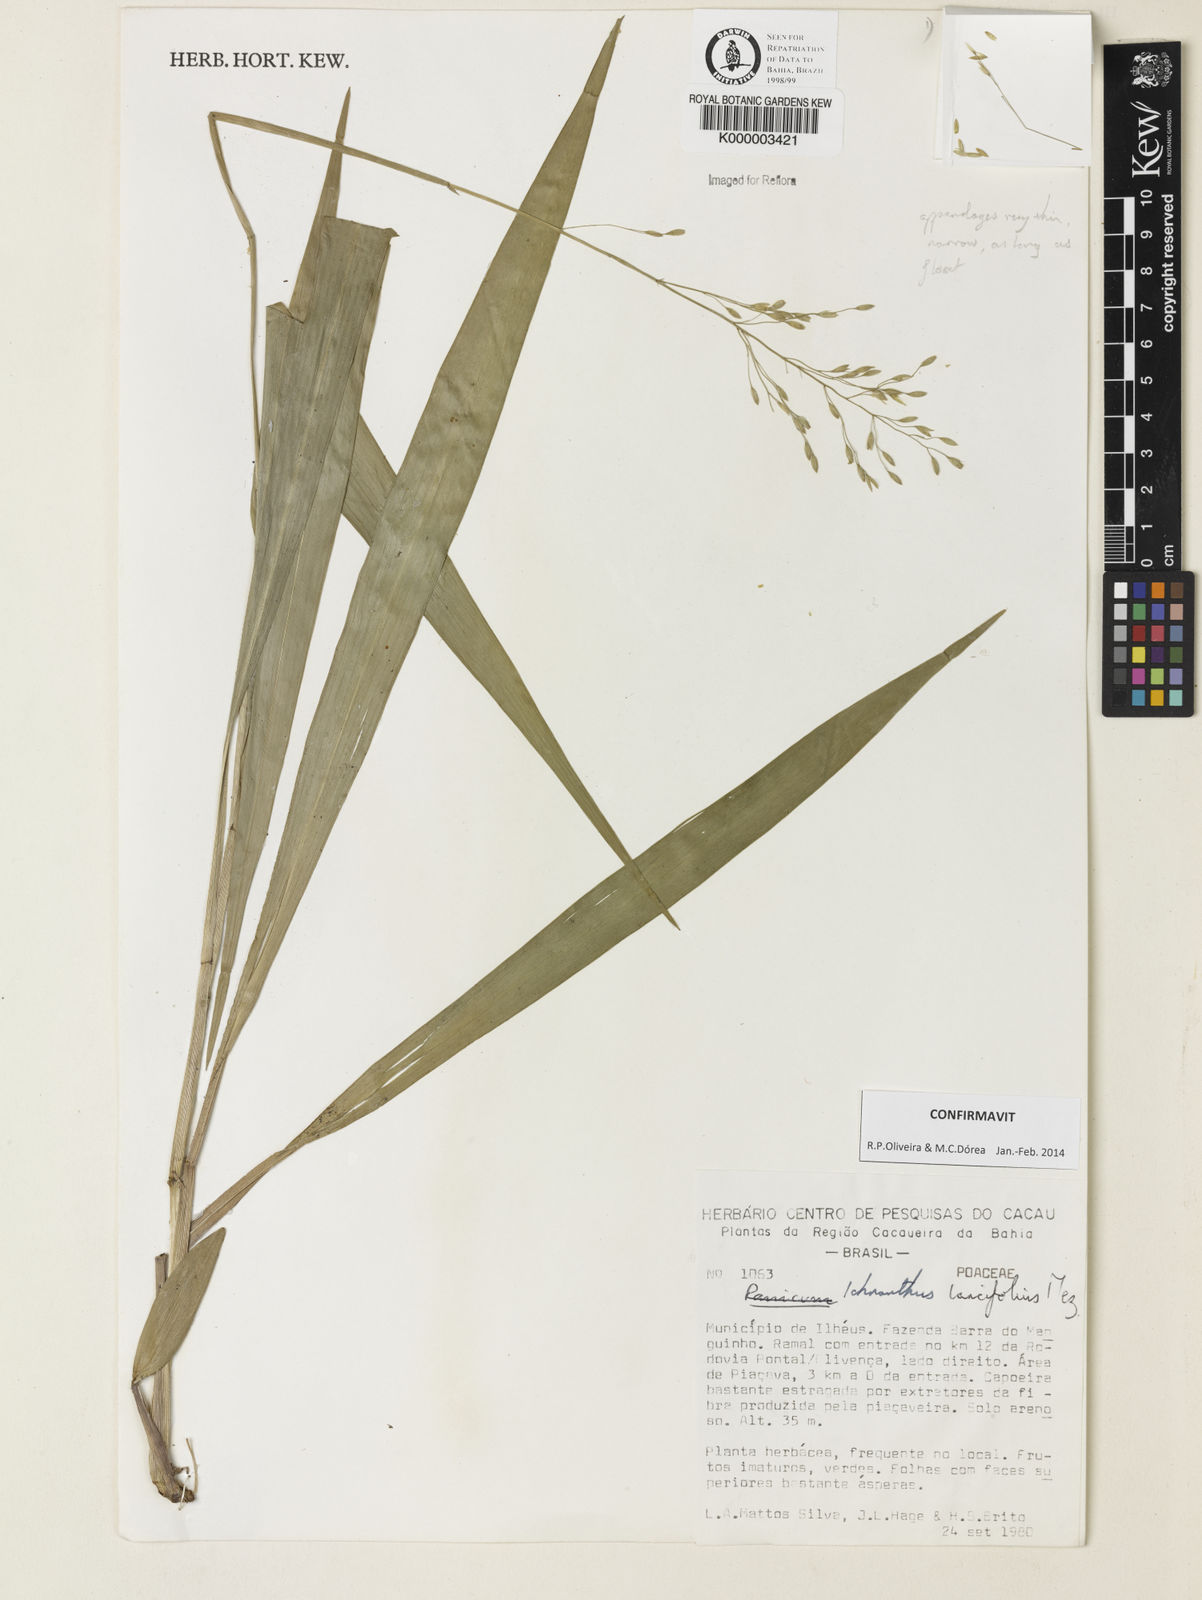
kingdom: Plantae
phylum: Tracheophyta
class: Liliopsida
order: Poales
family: Poaceae
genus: Ichnanthus
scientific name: Ichnanthus lancifolius
